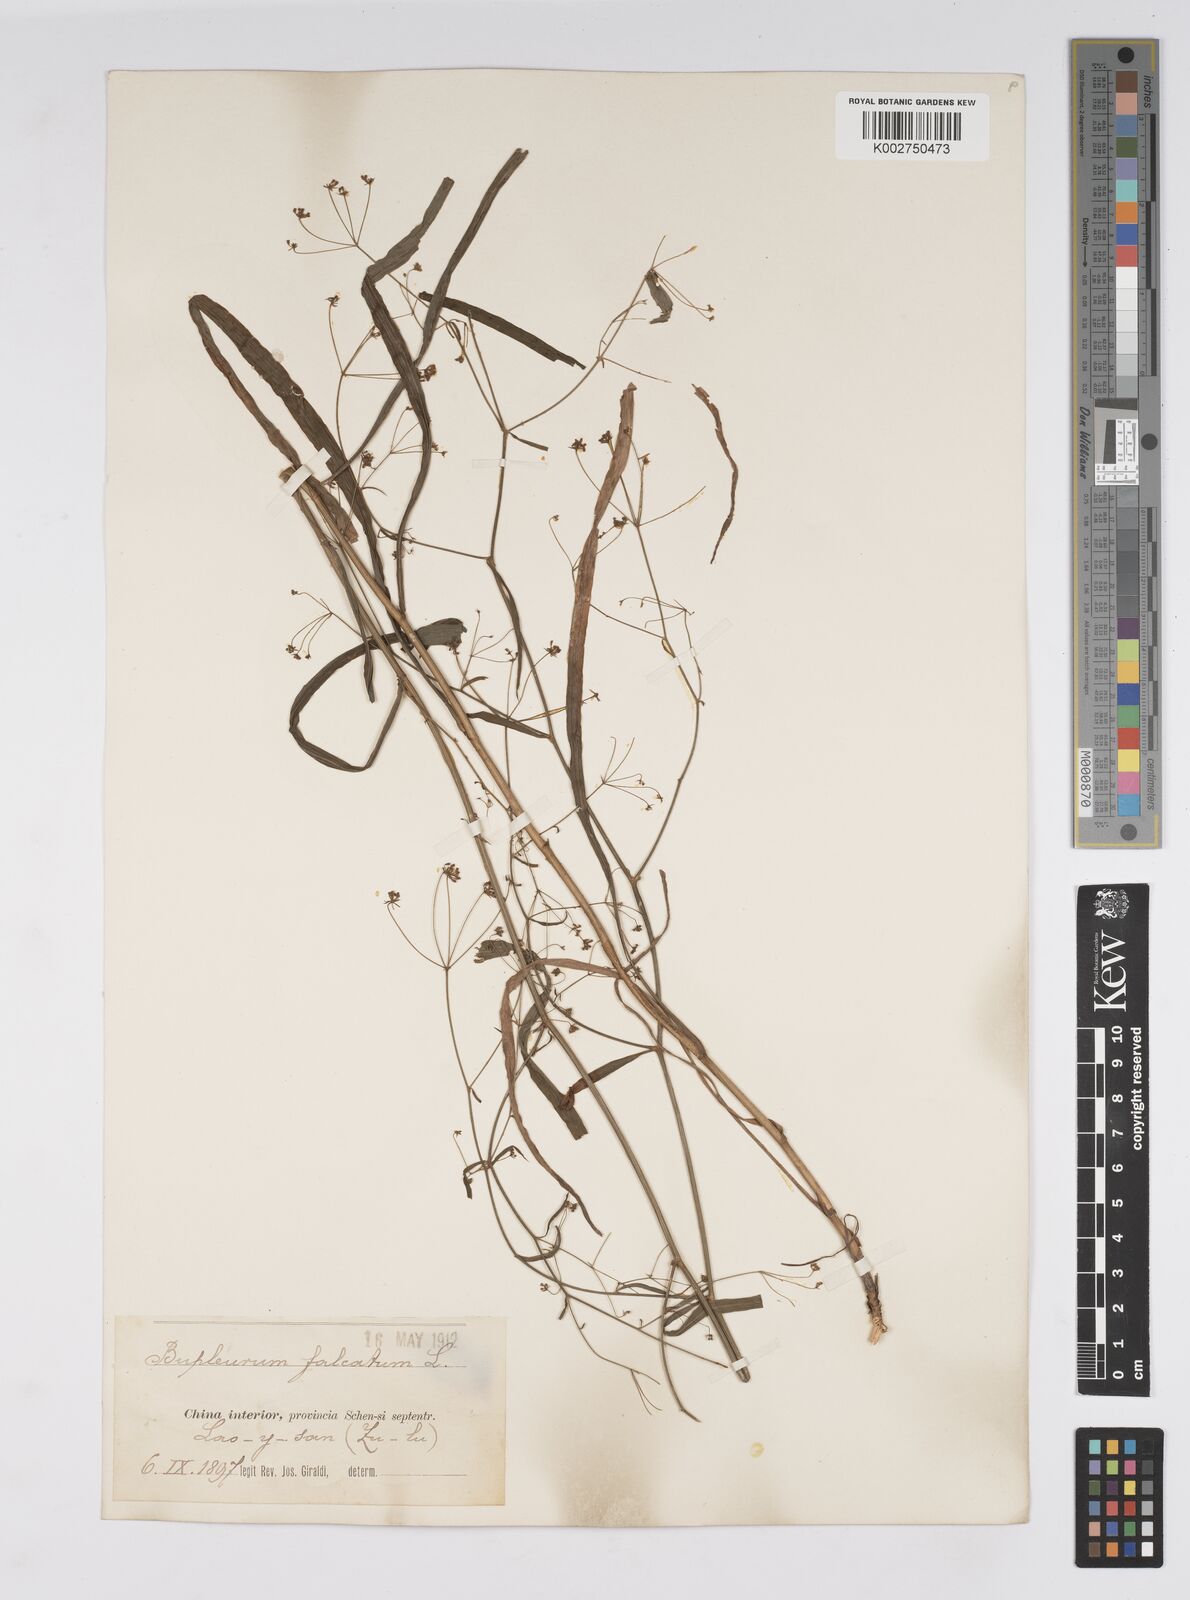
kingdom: Plantae
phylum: Tracheophyta
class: Magnoliopsida
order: Apiales
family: Apiaceae
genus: Bupleurum
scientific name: Bupleurum krylovianum
